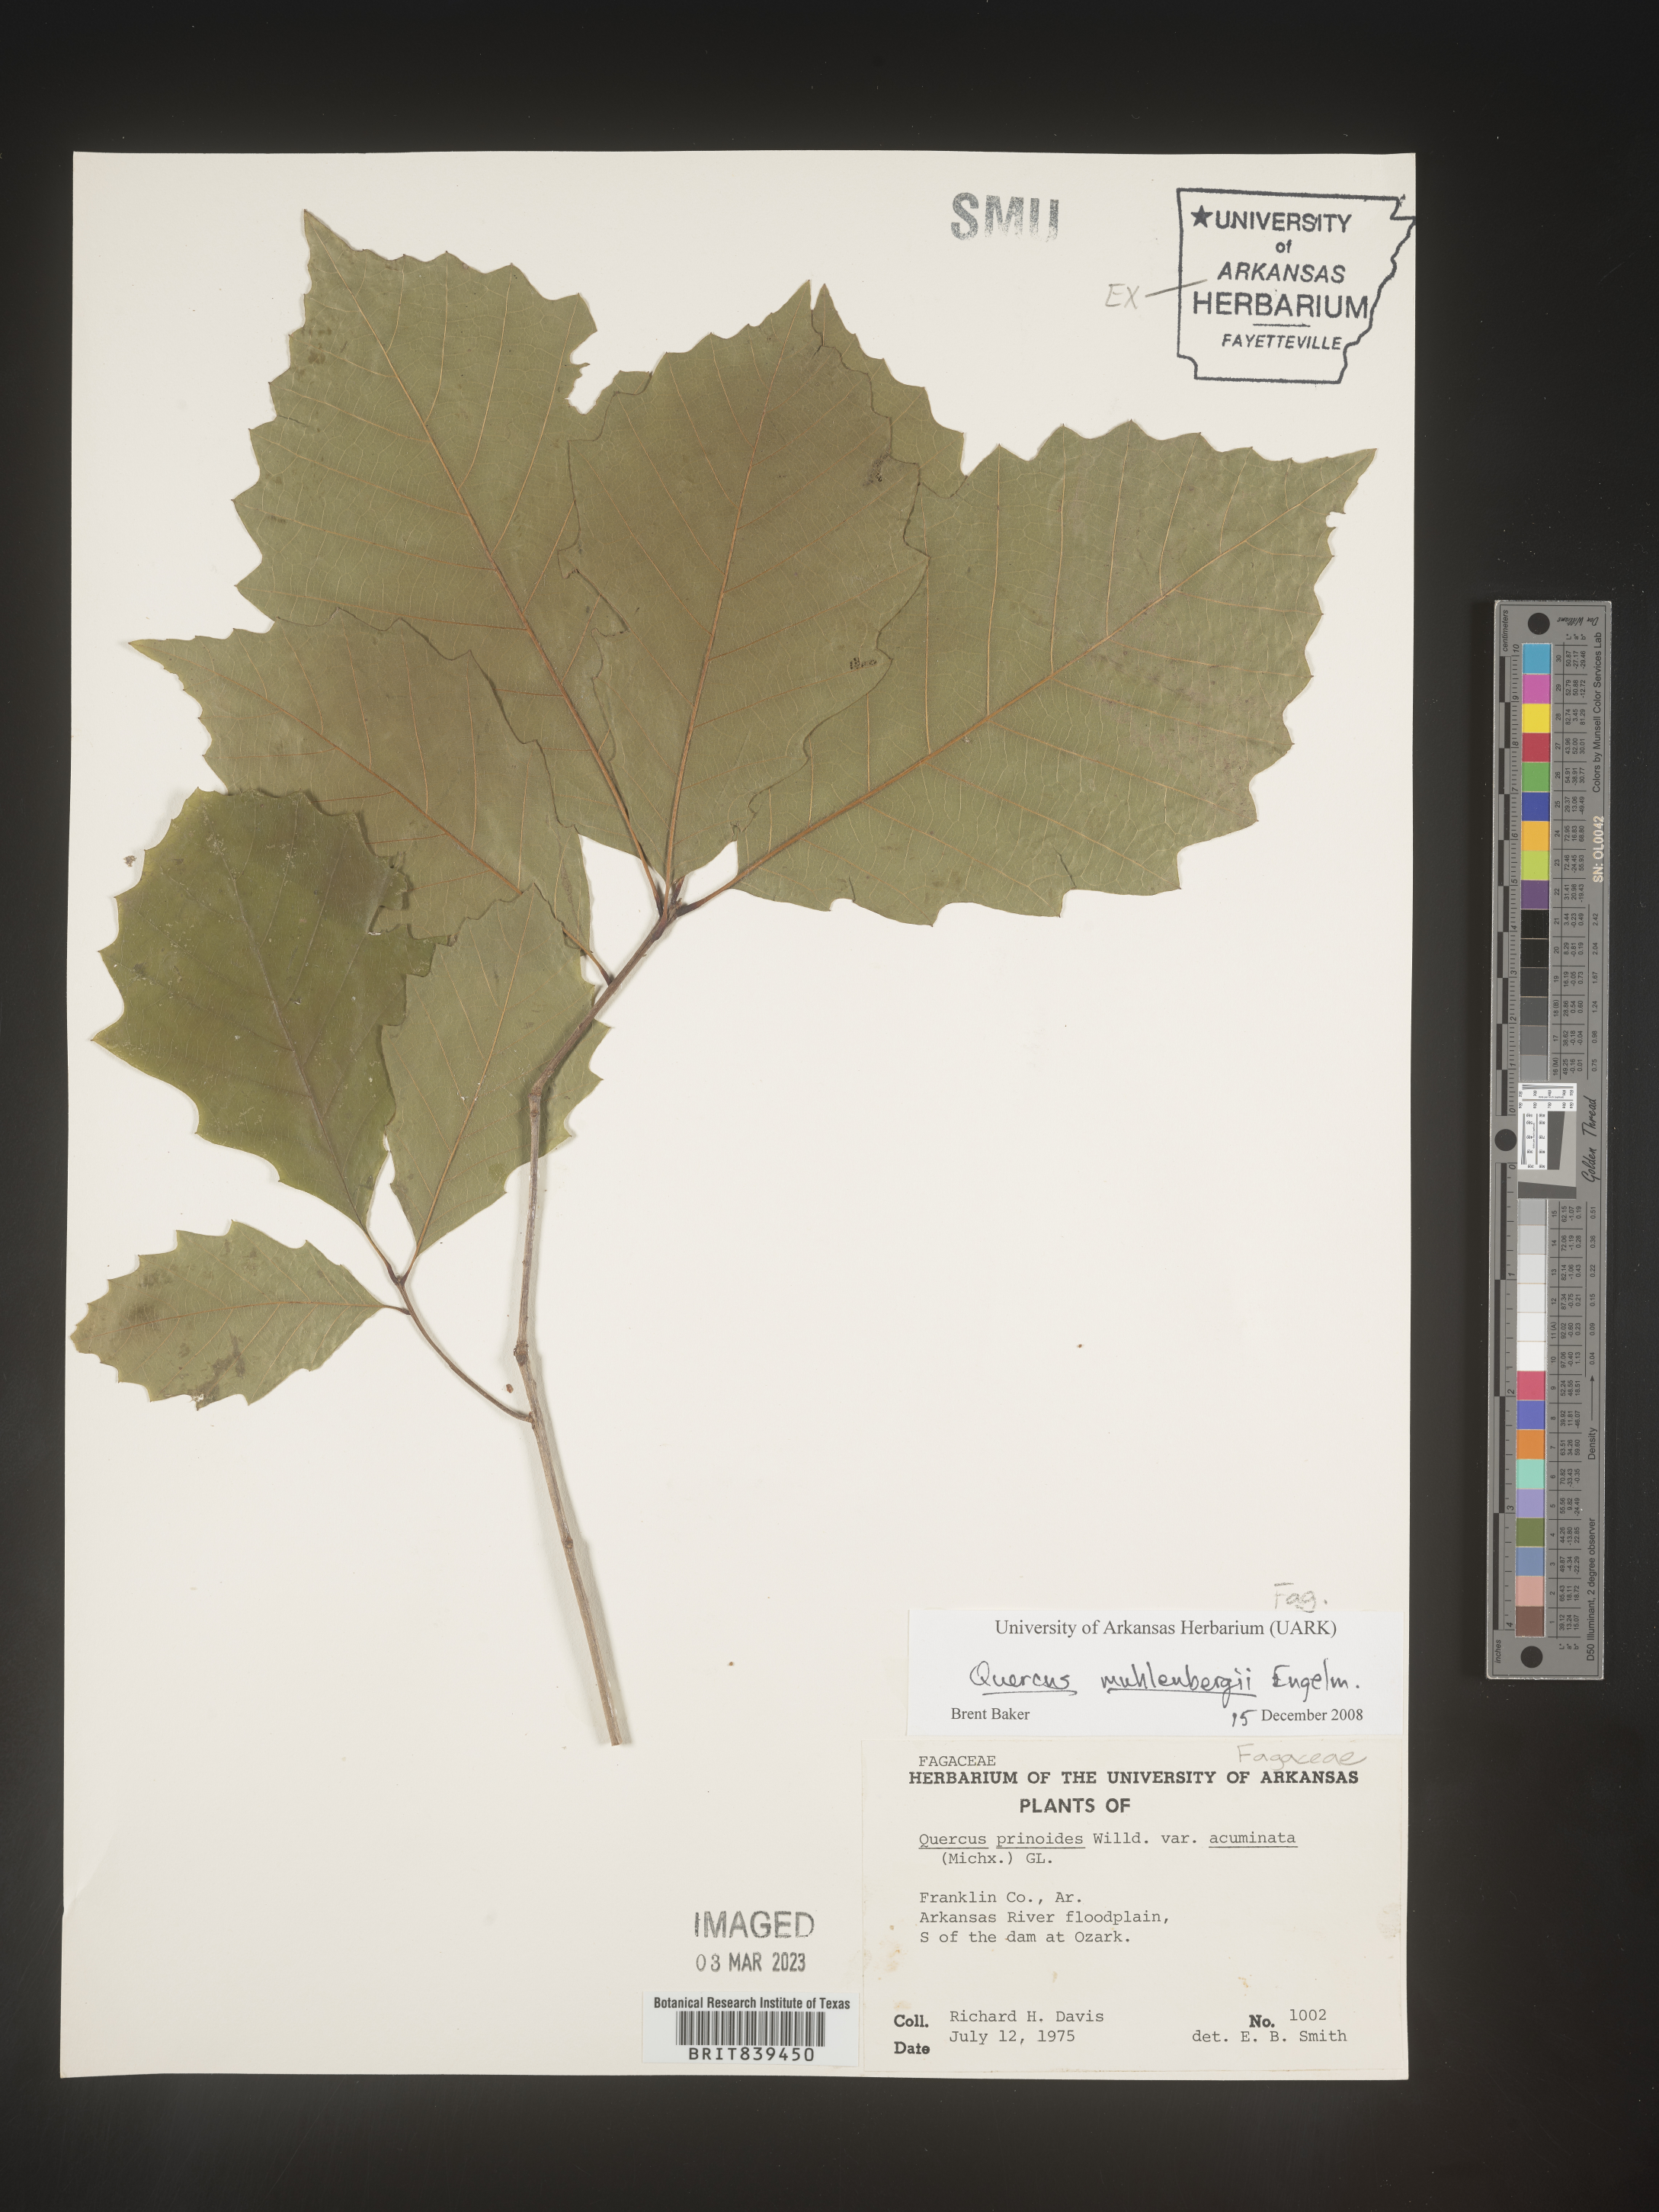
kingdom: Plantae
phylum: Tracheophyta
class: Magnoliopsida
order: Fagales
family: Fagaceae
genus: Quercus
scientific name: Quercus muehlenbergii
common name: Chinkapin oak
